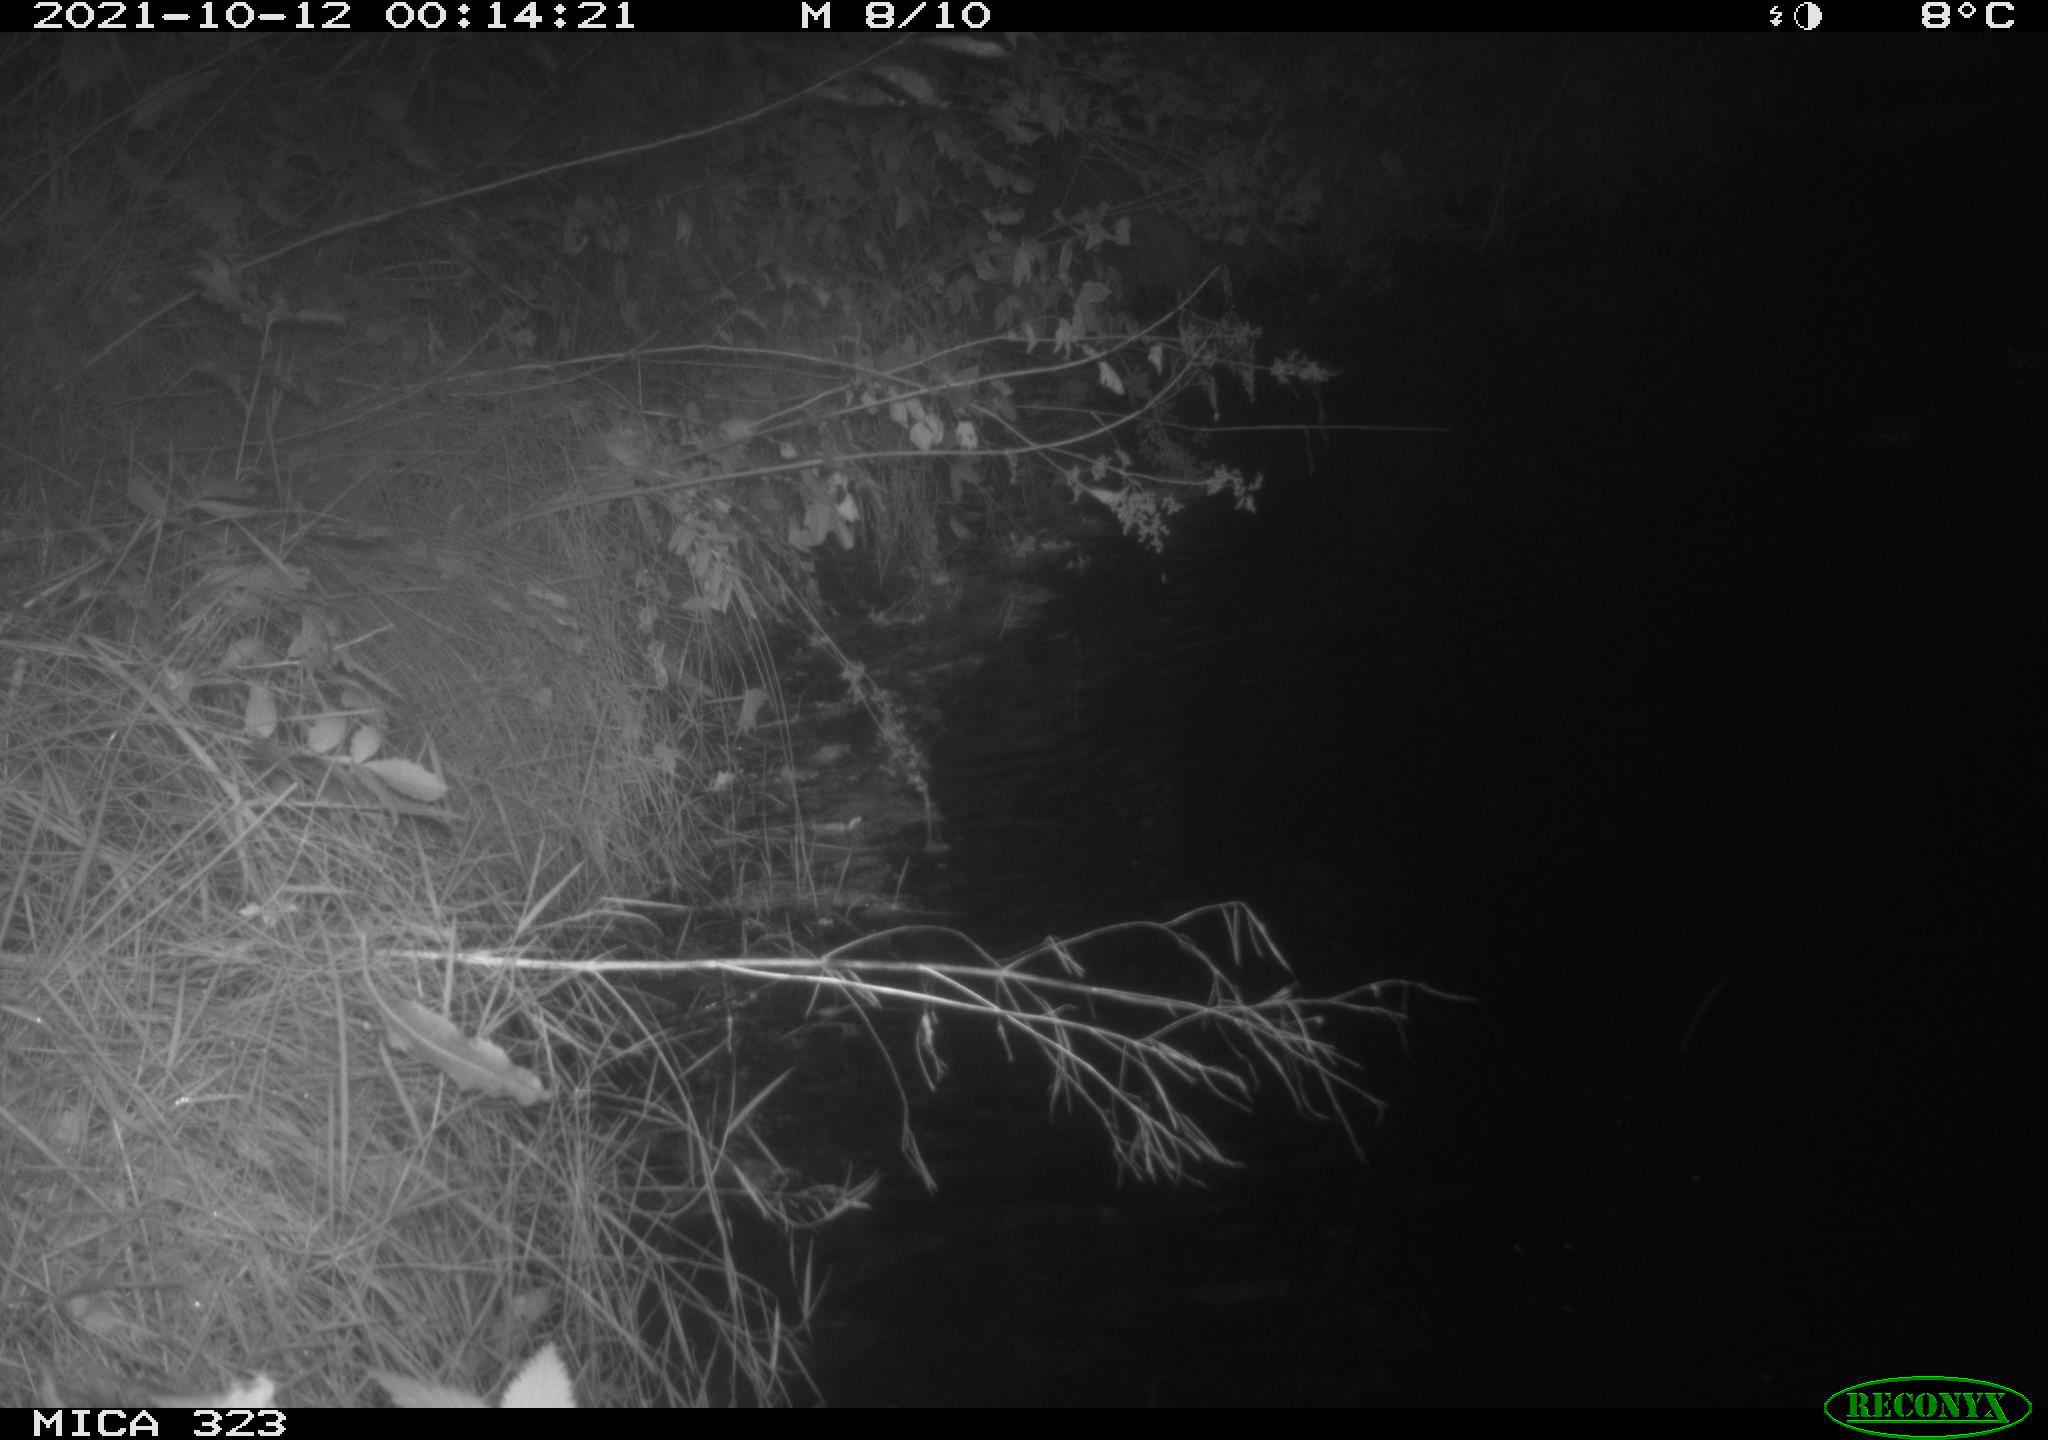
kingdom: Animalia
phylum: Chordata
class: Mammalia
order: Rodentia
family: Muridae
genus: Rattus
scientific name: Rattus norvegicus
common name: Brown rat
